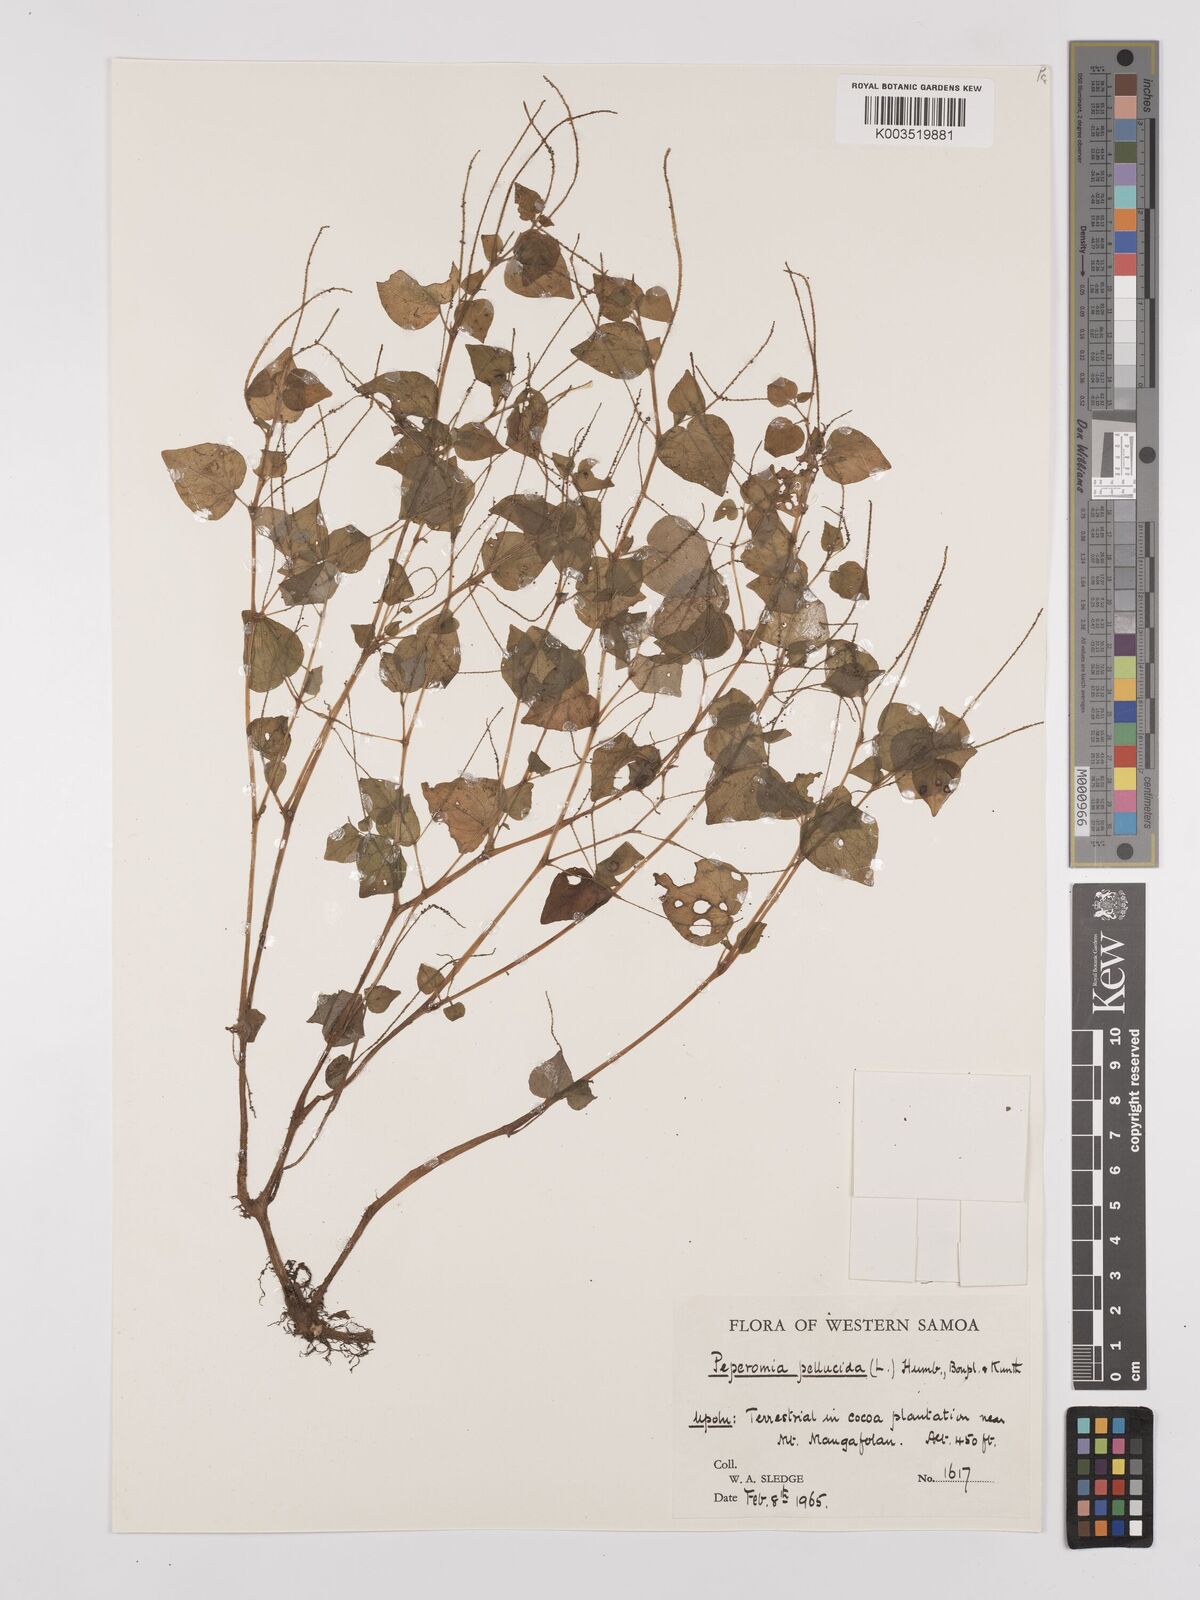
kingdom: Plantae
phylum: Tracheophyta
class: Magnoliopsida
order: Piperales
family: Piperaceae
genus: Peperomia
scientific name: Peperomia pellucida
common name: Man to man
